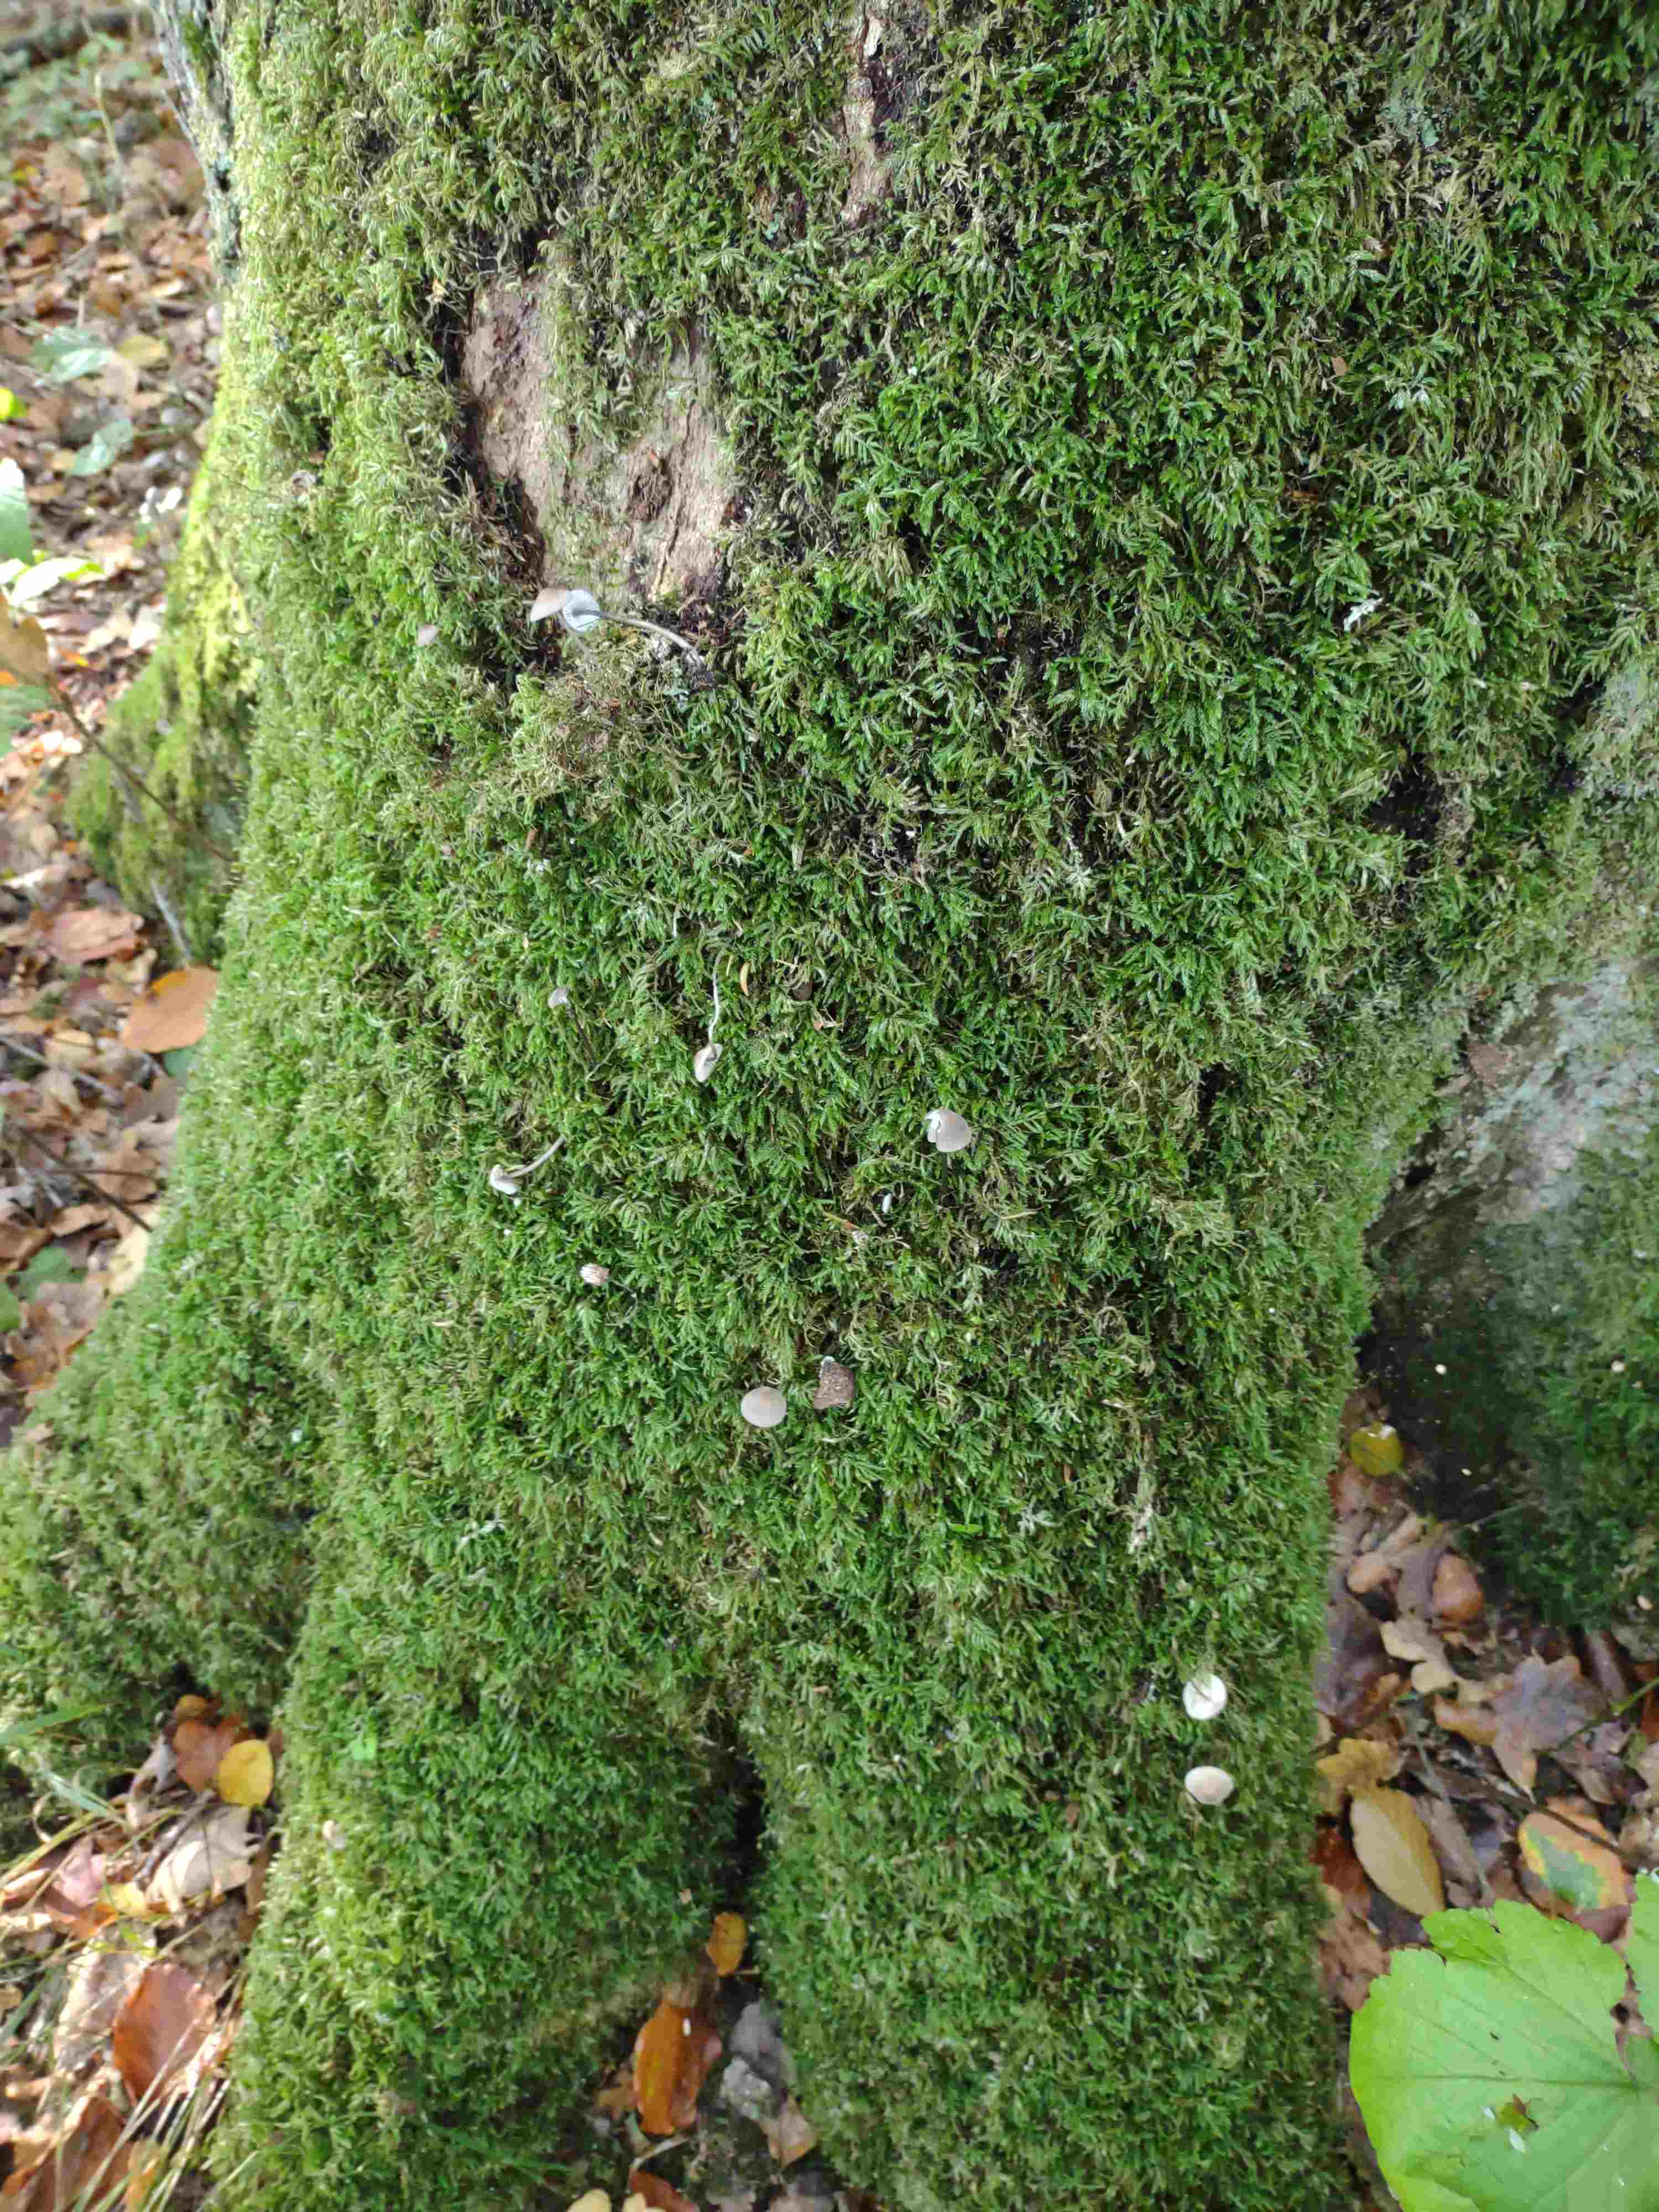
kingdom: Fungi
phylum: Basidiomycota
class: Agaricomycetes
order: Agaricales
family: Mycenaceae
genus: Mycena
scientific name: Mycena
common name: huesvamp
